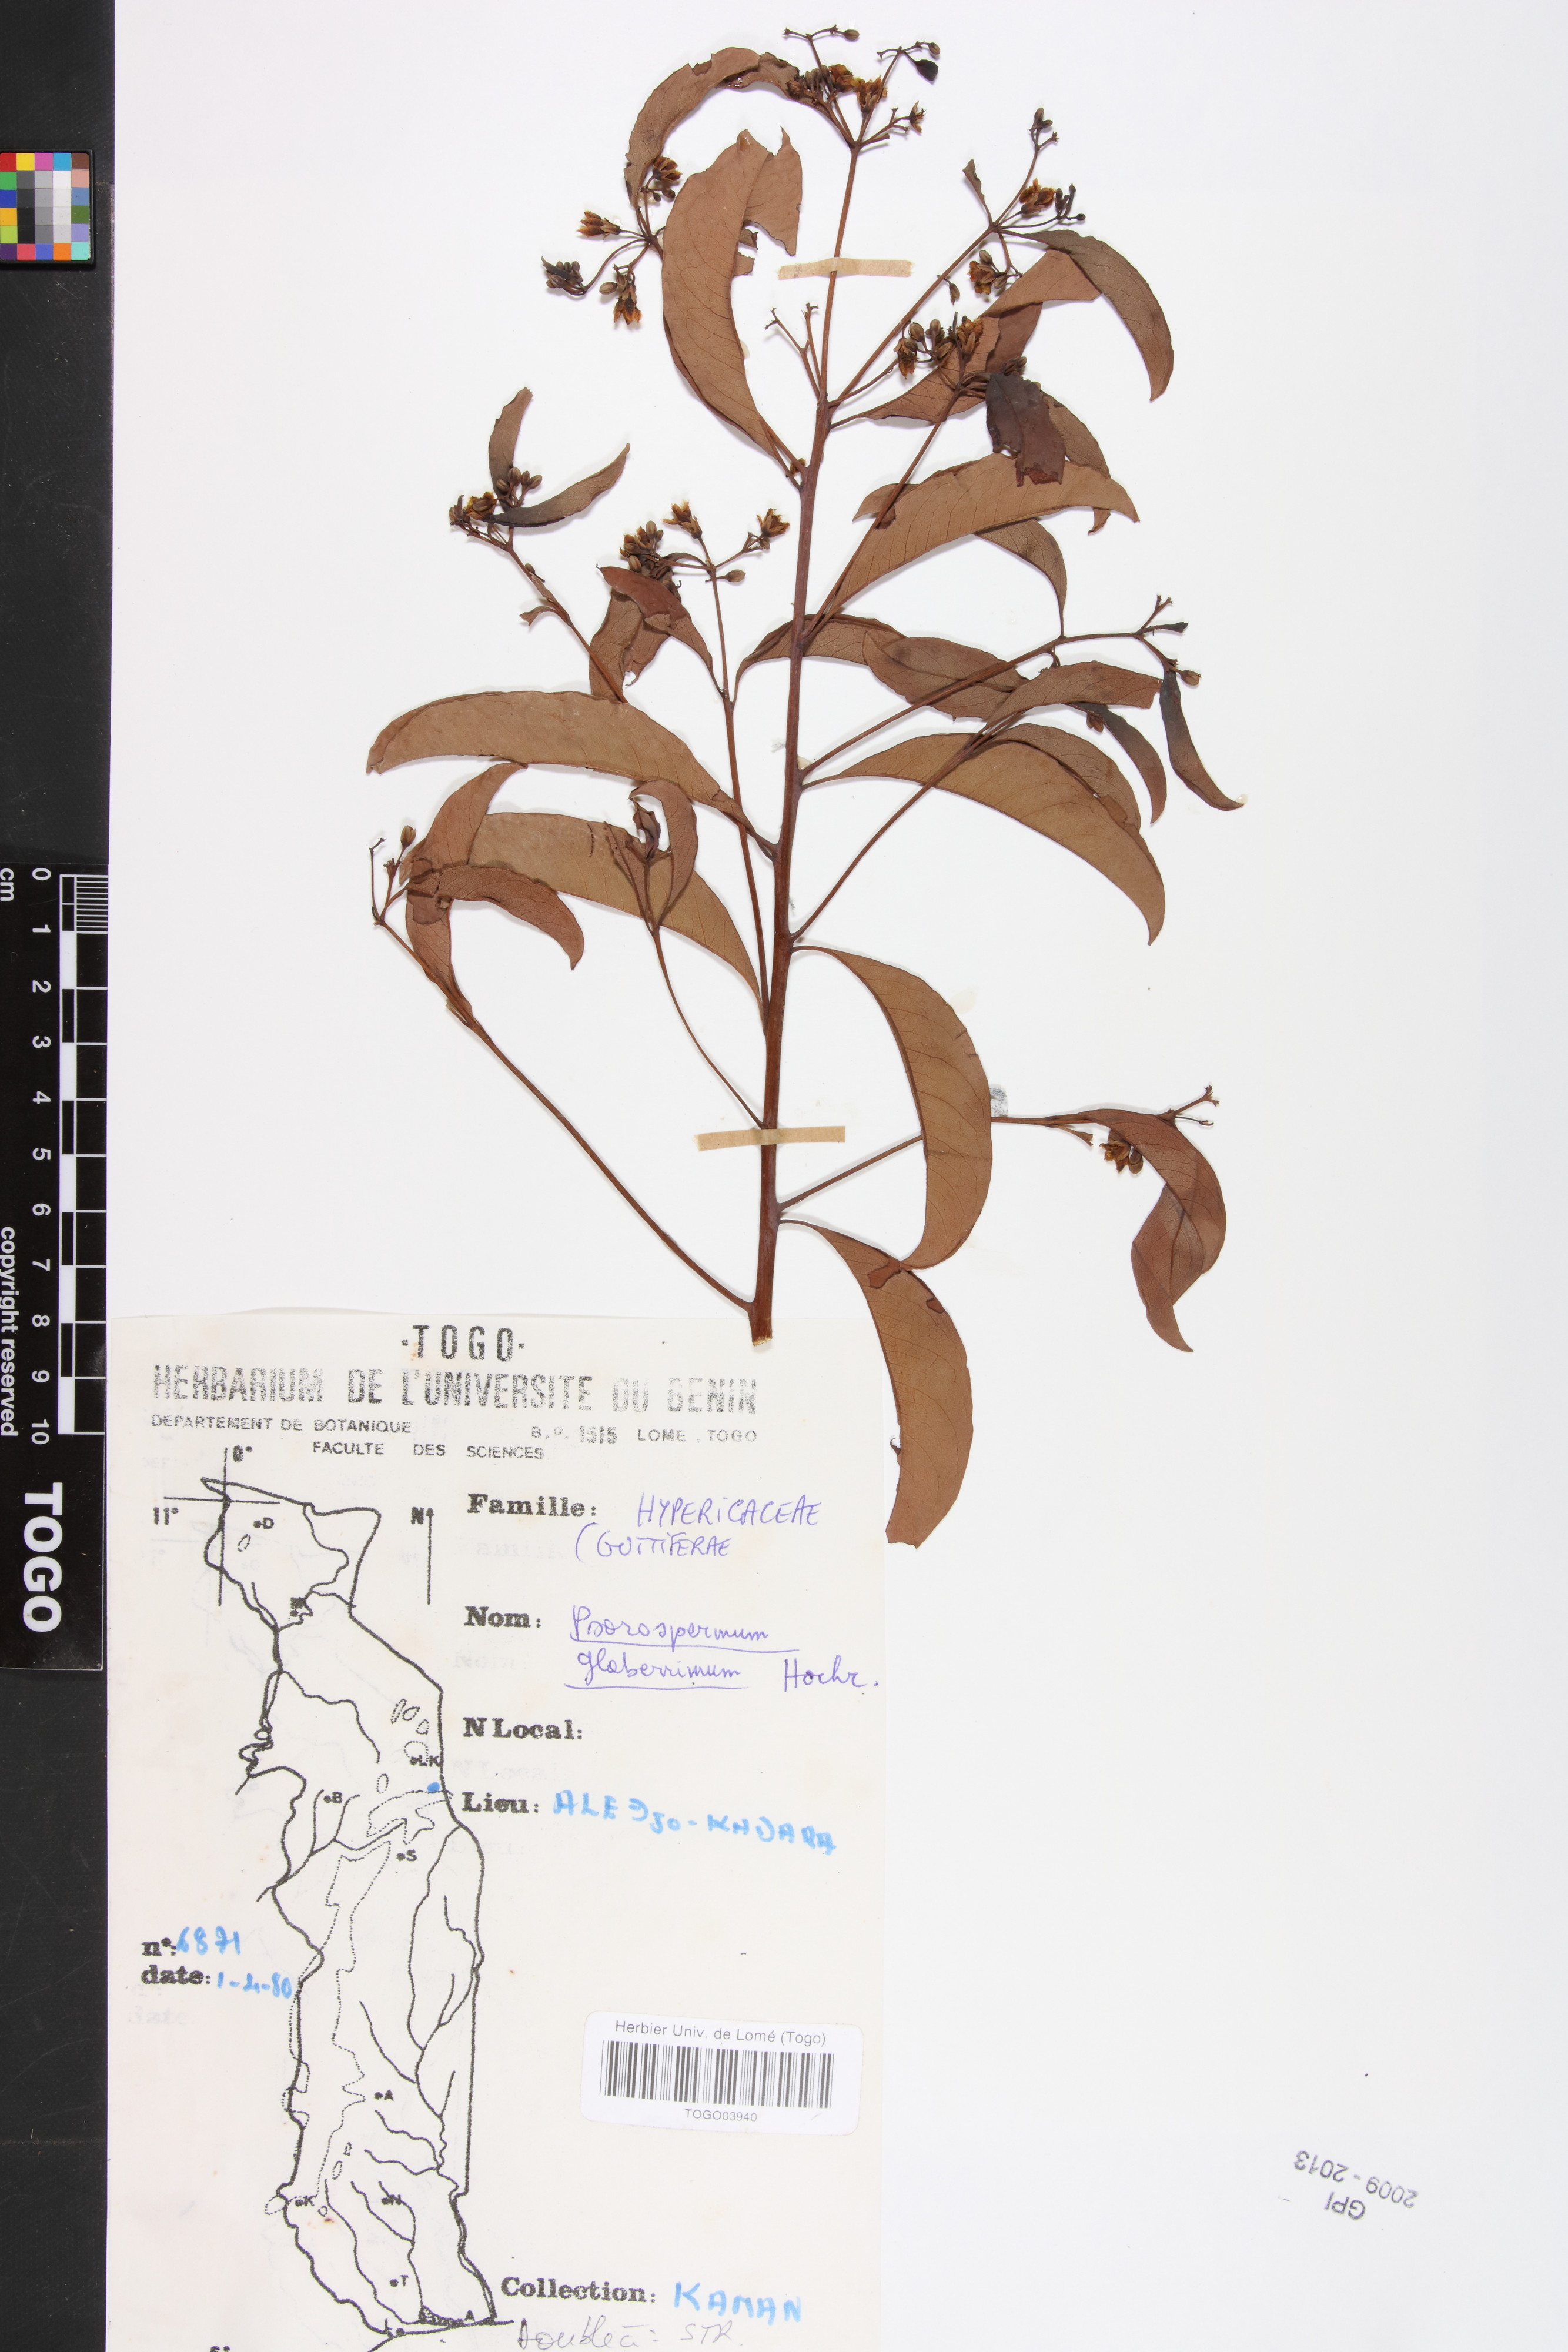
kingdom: Plantae
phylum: Tracheophyta
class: Magnoliopsida
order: Malpighiales
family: Hypericaceae
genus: Psorospermum
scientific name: Psorospermum glaberrimum
